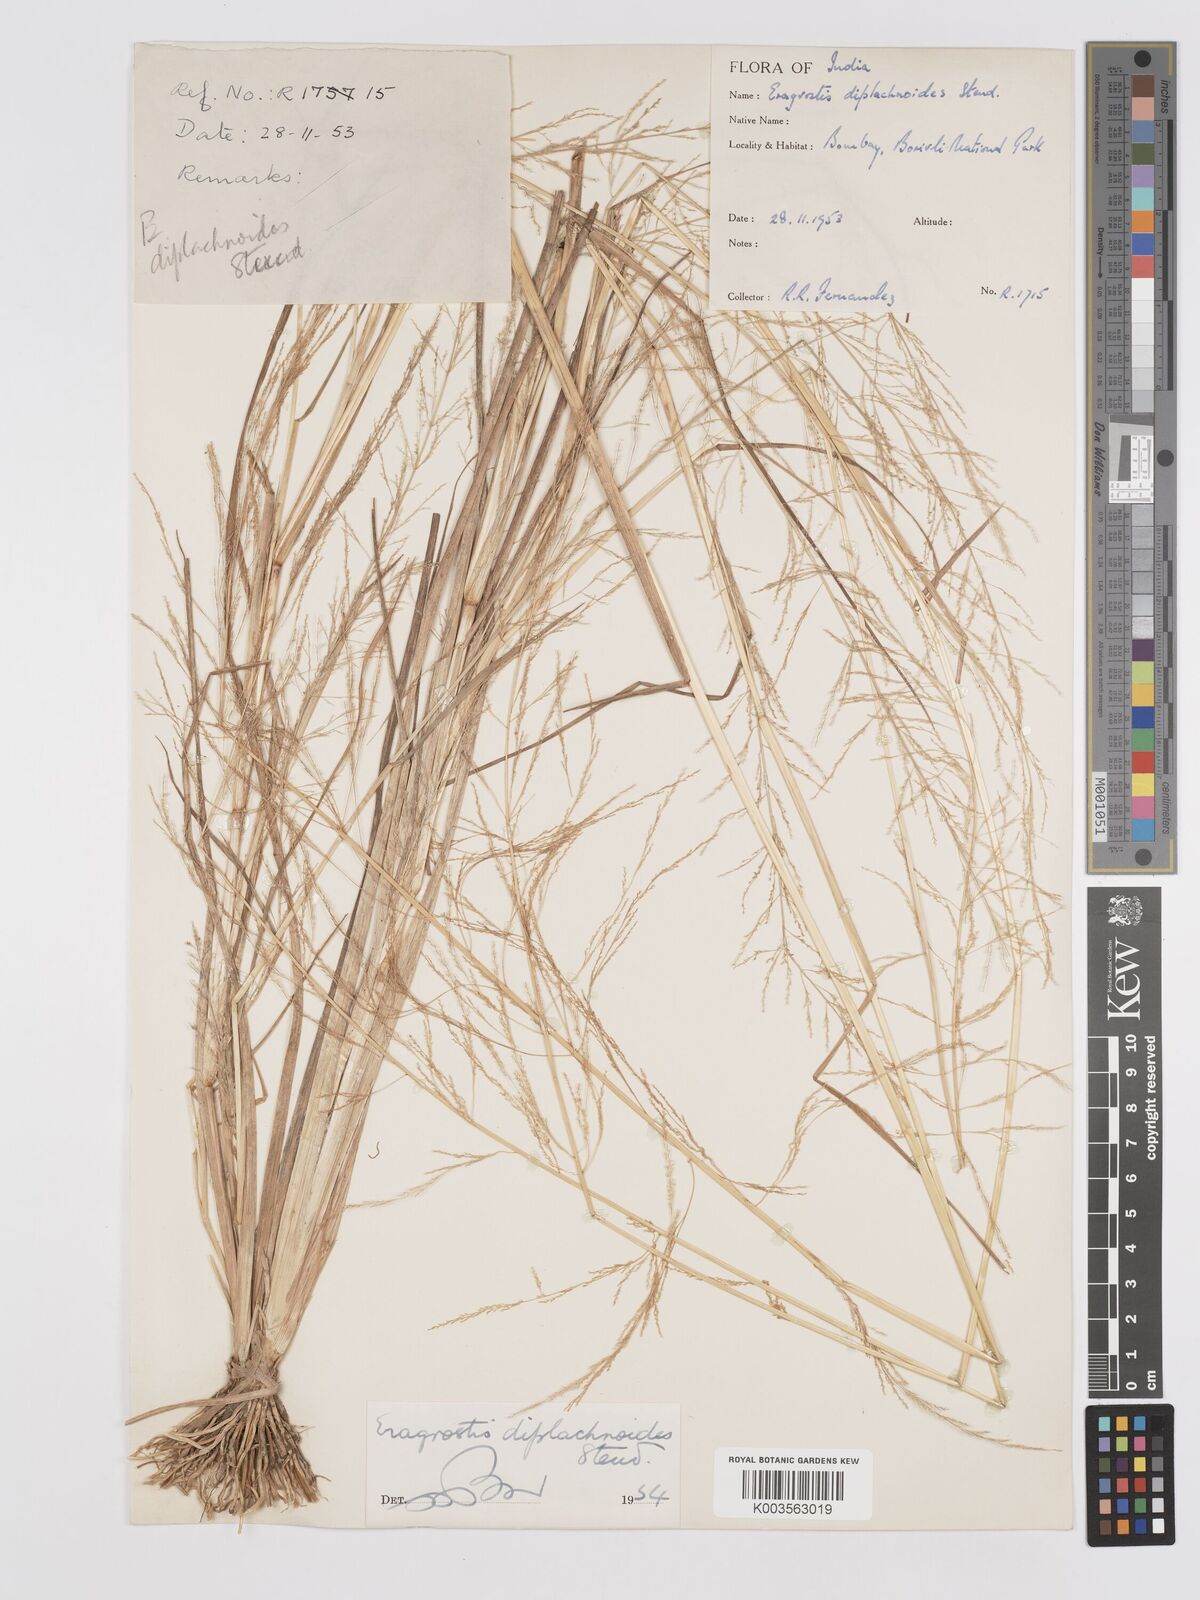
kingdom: Plantae
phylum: Tracheophyta
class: Liliopsida
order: Poales
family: Poaceae
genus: Eragrostis
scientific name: Eragrostis japonica
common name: Pond lovegrass
